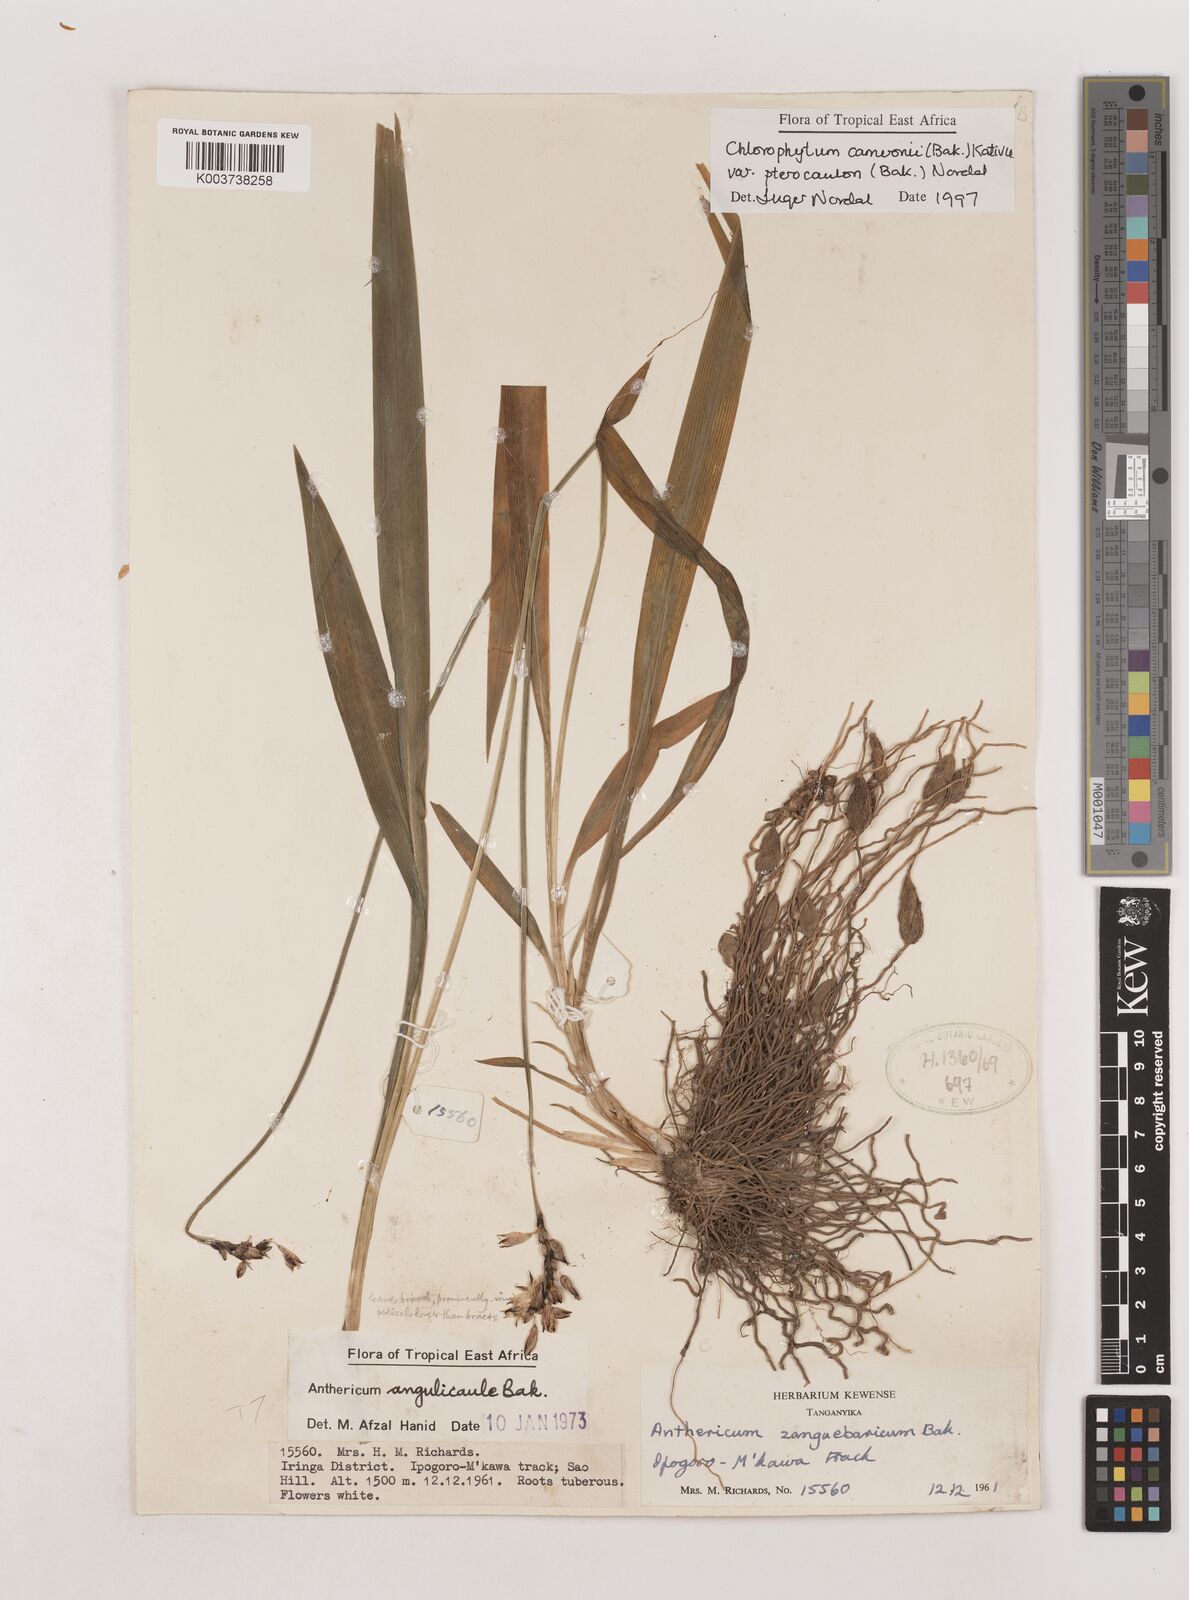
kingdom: Plantae
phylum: Tracheophyta
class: Liliopsida
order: Asparagales
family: Asparagaceae
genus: Chlorophytum
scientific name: Chlorophytum cameronii
